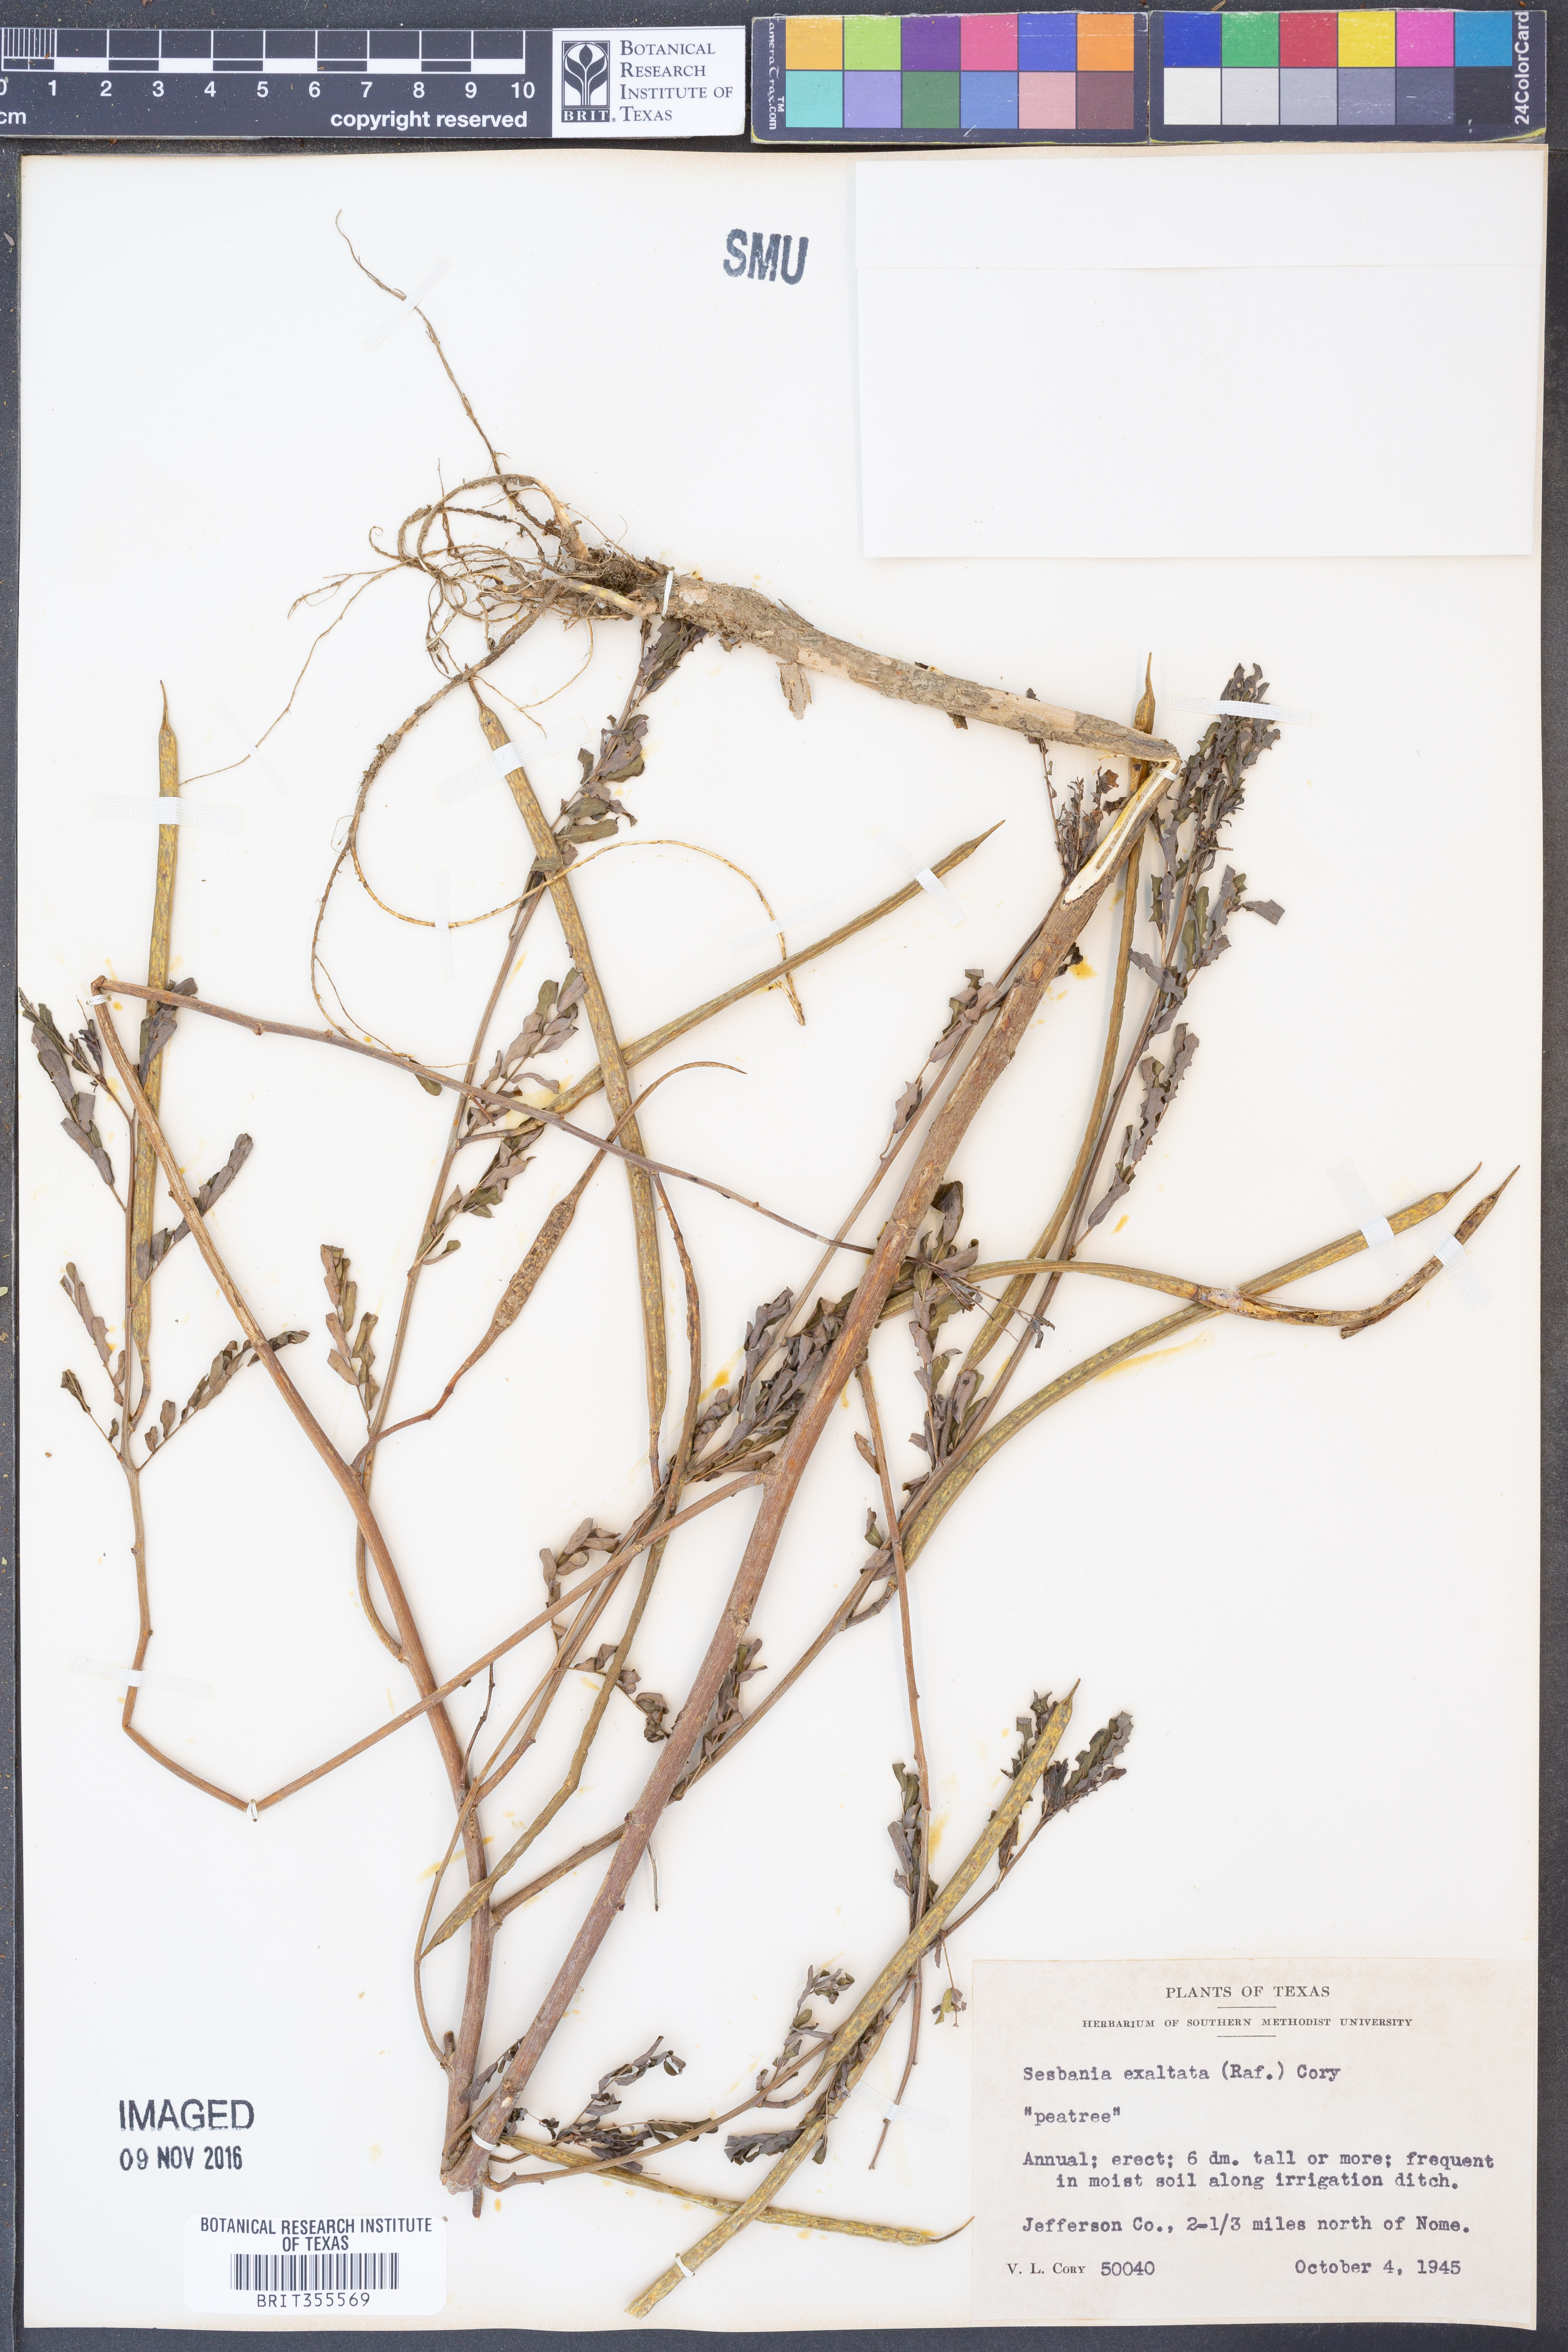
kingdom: Plantae
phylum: Tracheophyta
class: Magnoliopsida
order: Fabales
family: Fabaceae
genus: Sesbania
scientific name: Sesbania herbacea
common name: Bigpod sesbania
